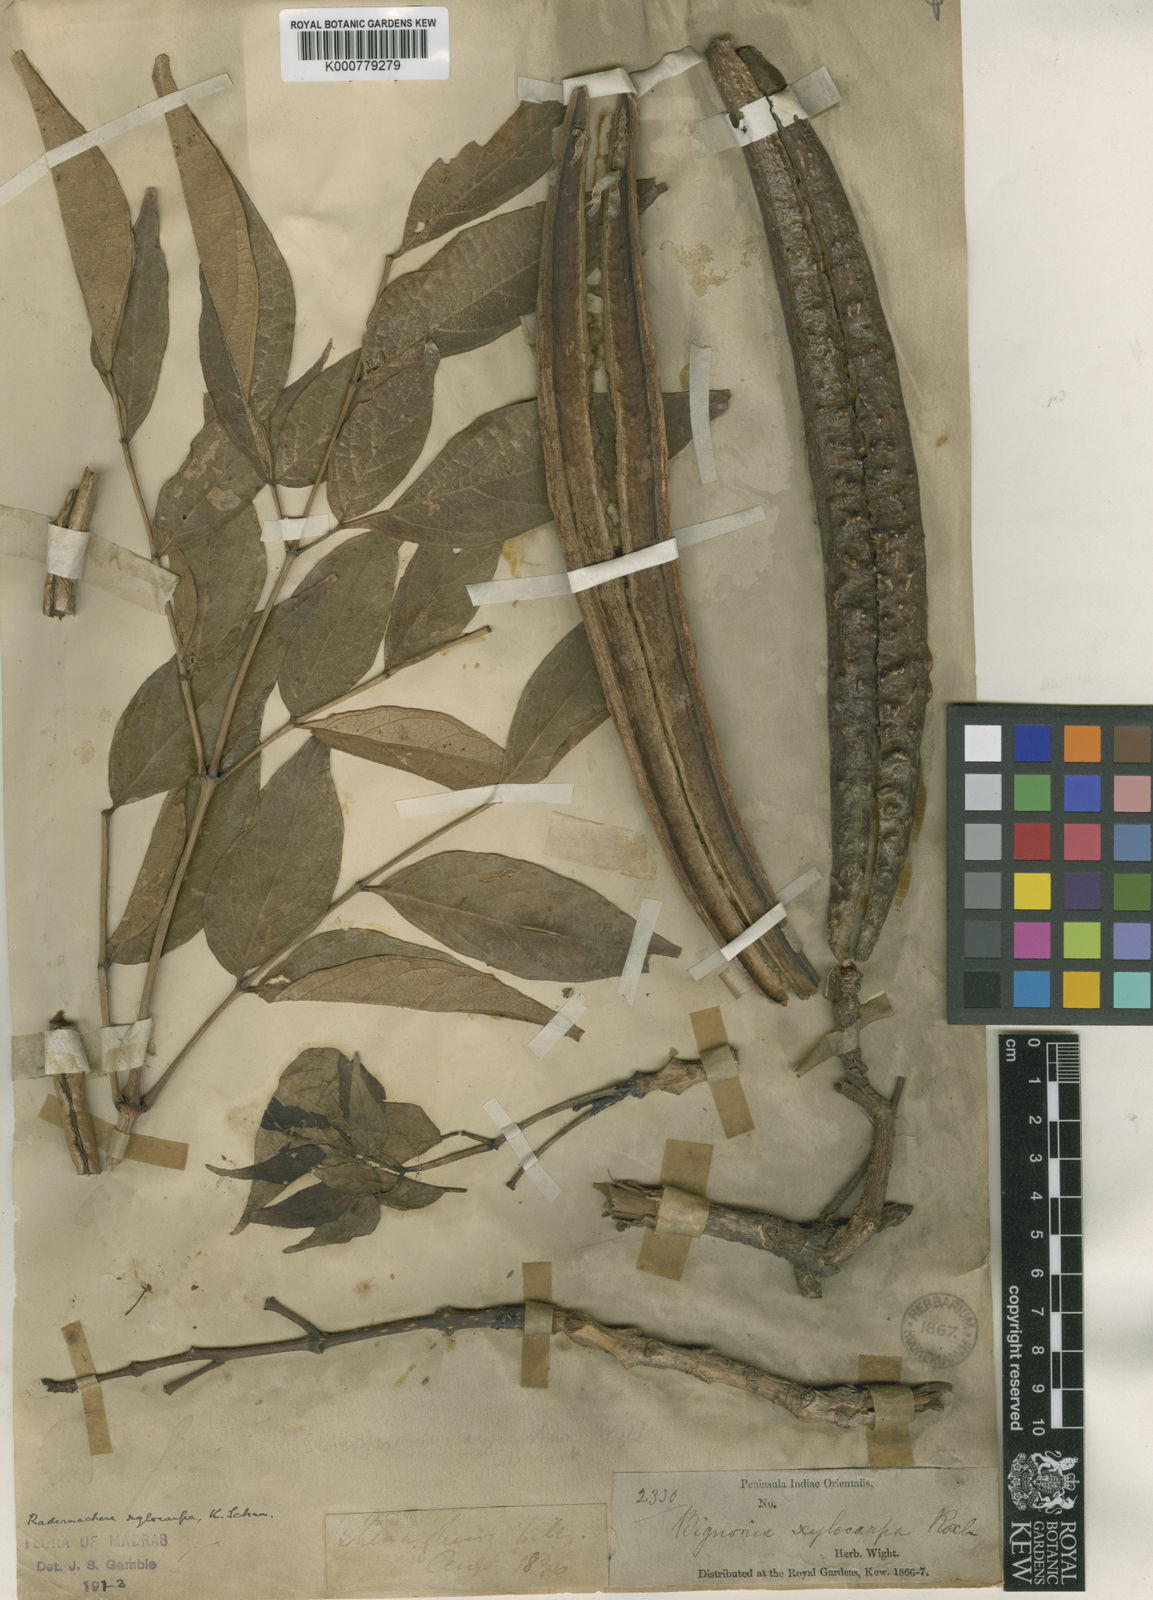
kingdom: Plantae
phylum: Tracheophyta
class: Magnoliopsida
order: Lamiales
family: Bignoniaceae
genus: Radermachera
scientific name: Radermachera xylocarpa
